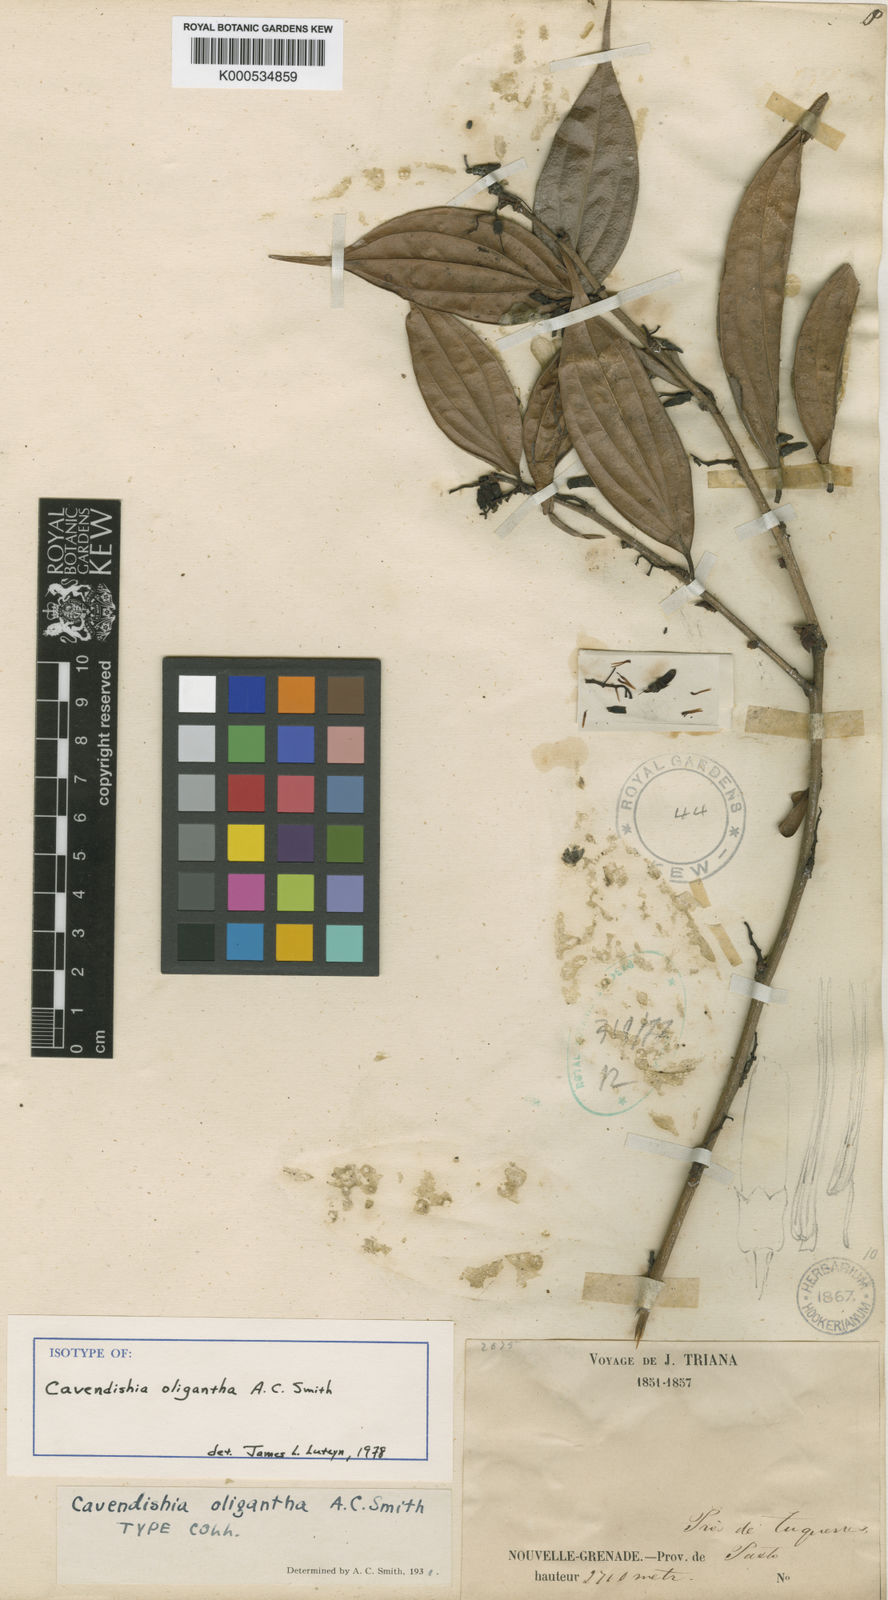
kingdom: Plantae
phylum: Tracheophyta
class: Magnoliopsida
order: Ericales
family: Ericaceae
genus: Cavendishia
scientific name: Cavendishia oligantha
